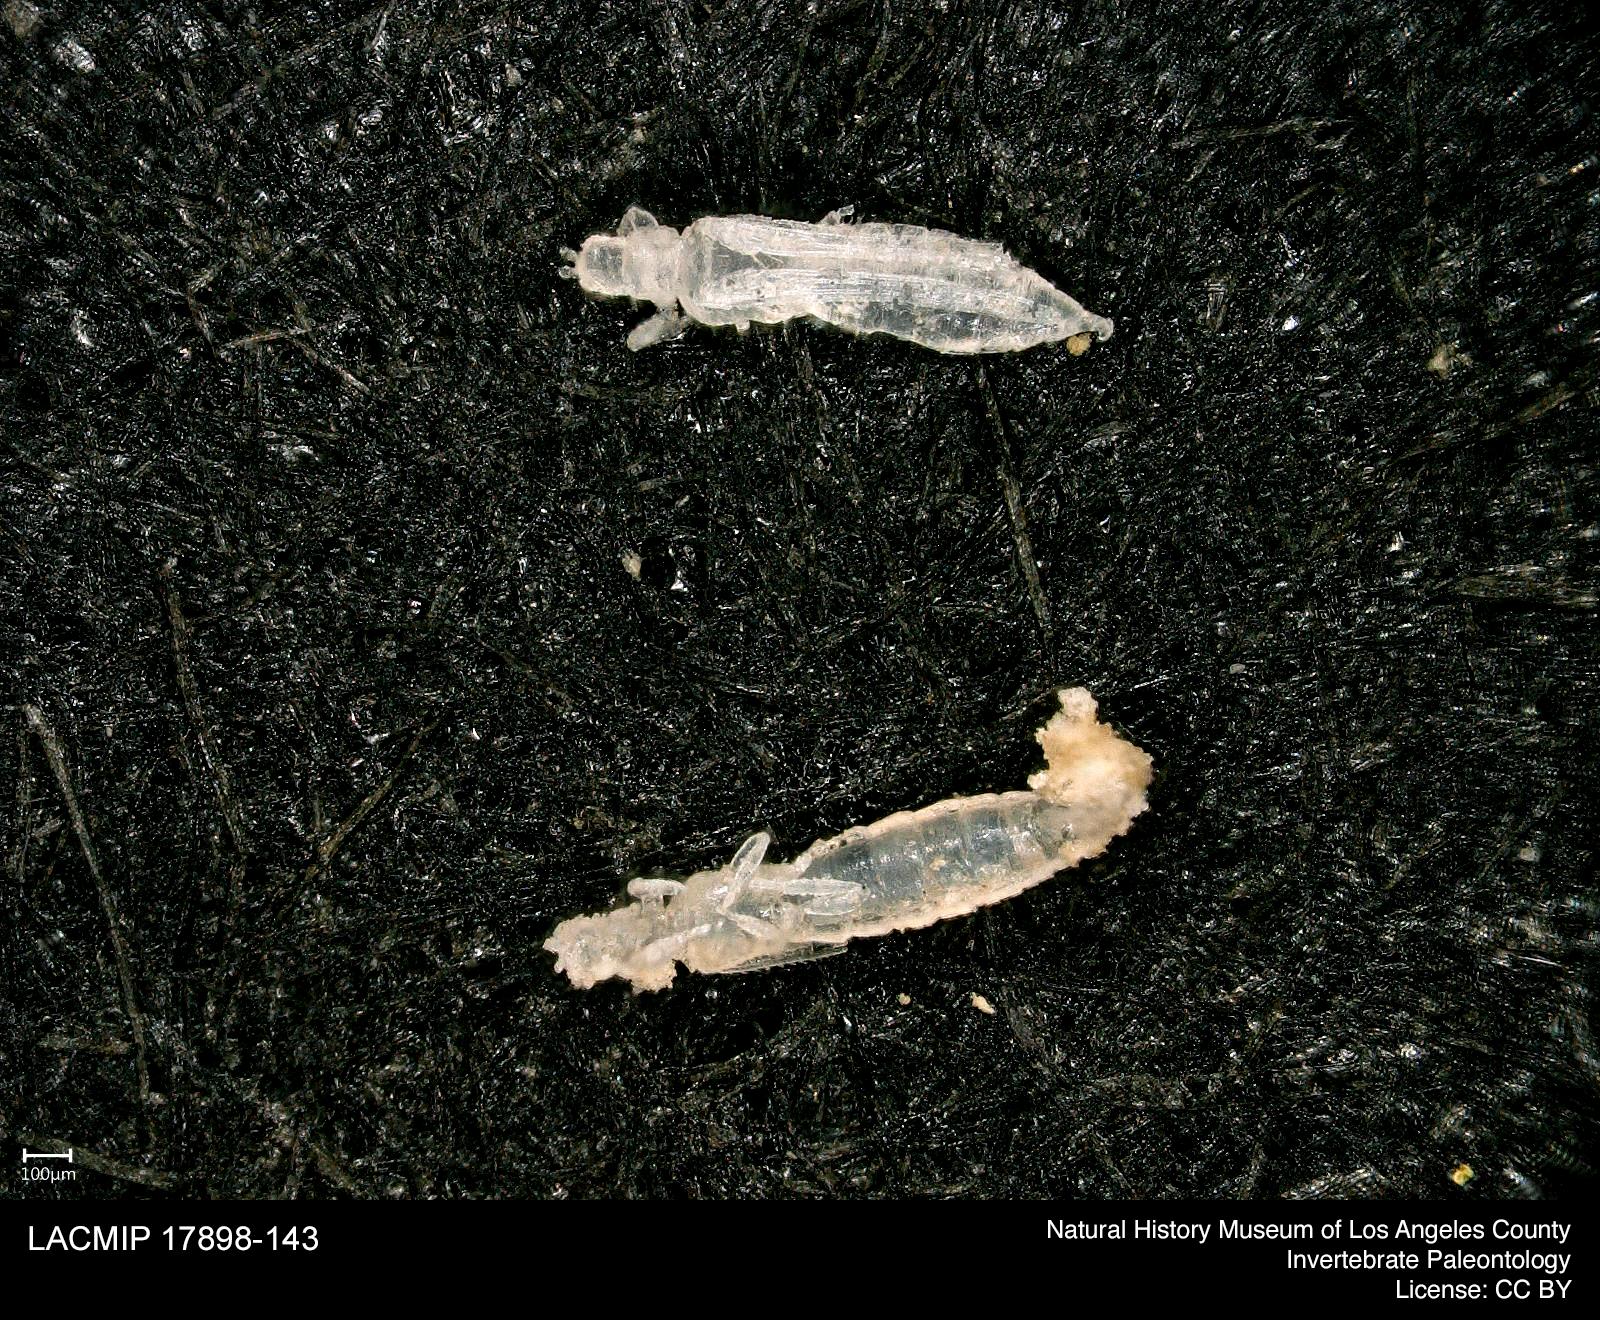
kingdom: Animalia
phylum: Arthropoda
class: Insecta
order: Thysanoptera
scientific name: Thysanoptera
